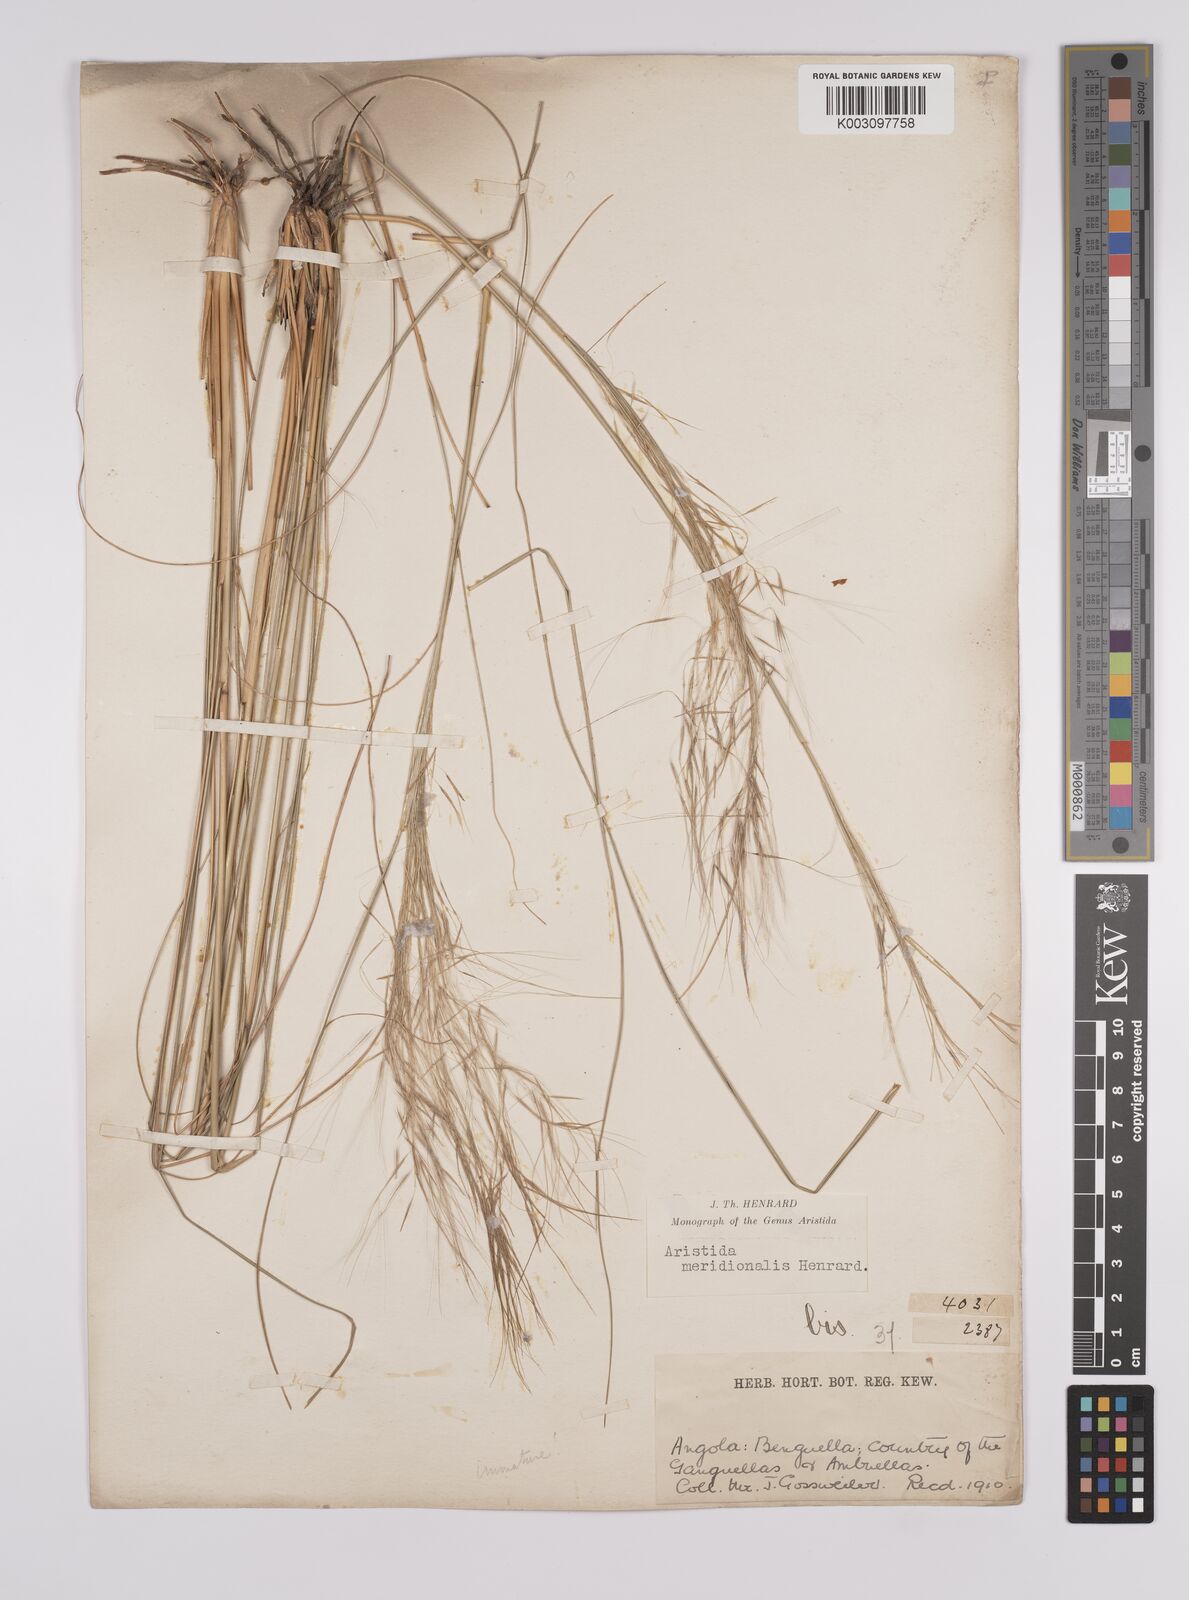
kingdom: Plantae
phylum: Tracheophyta
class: Liliopsida
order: Poales
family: Poaceae
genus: Aristida
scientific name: Aristida meridionalis
